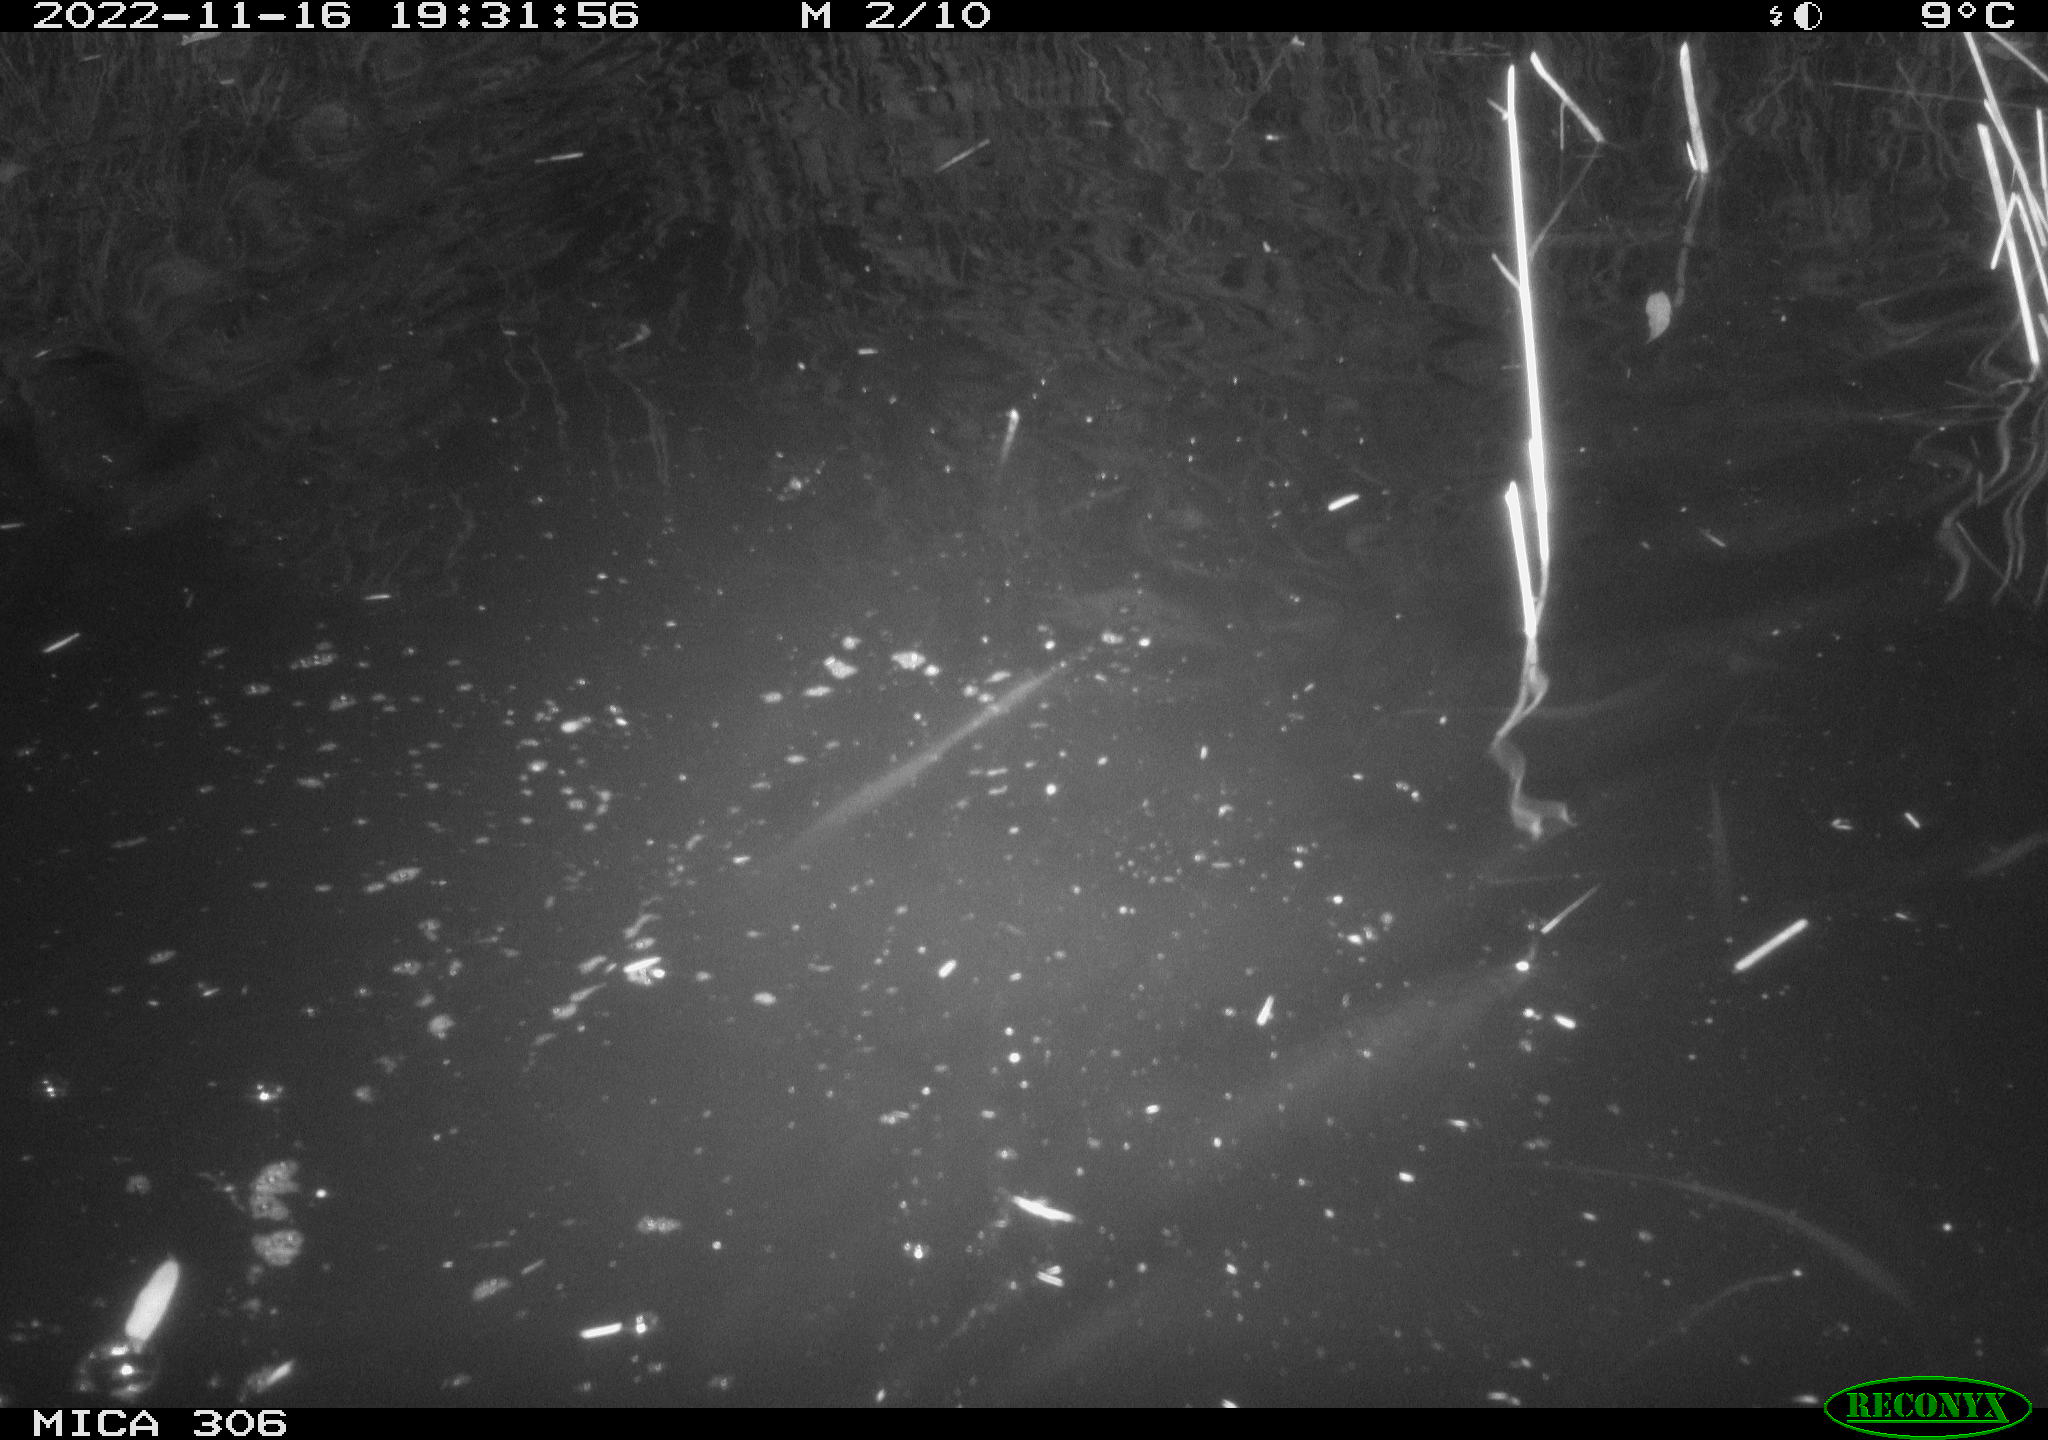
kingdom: Animalia
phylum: Chordata
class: Mammalia
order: Rodentia
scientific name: Rodentia
